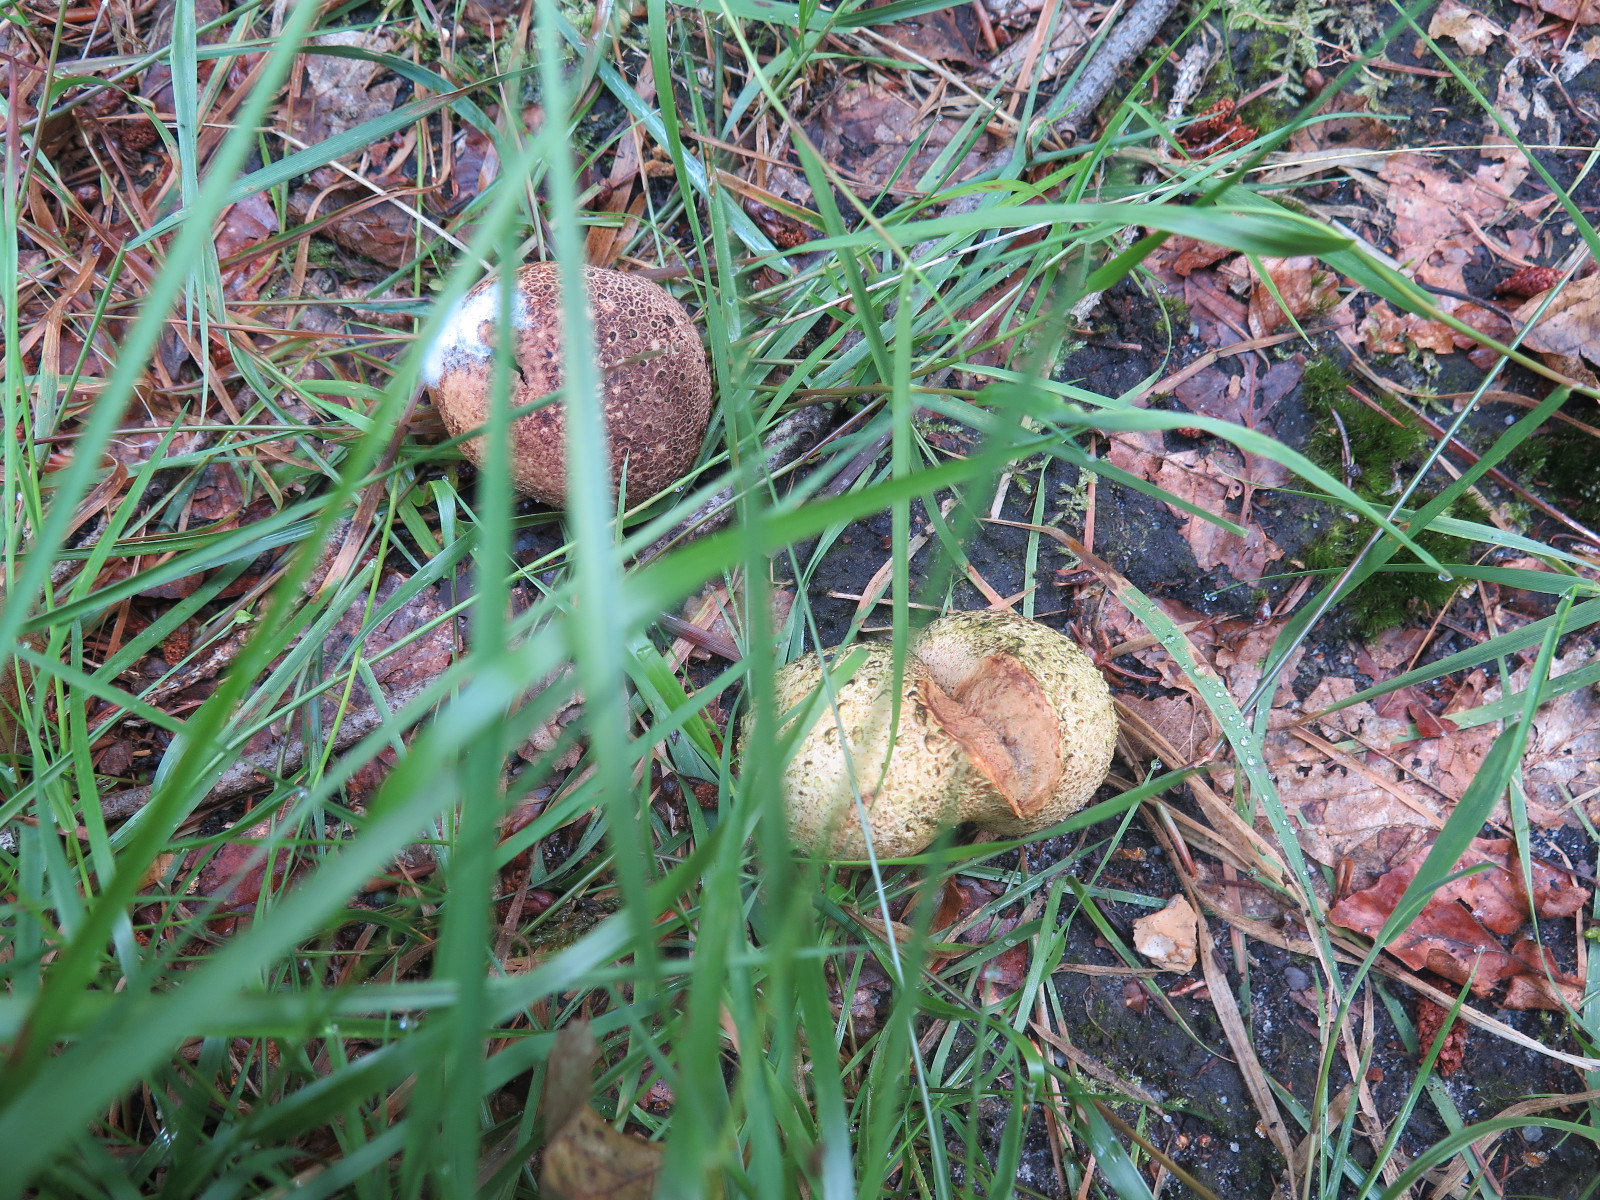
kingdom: Fungi
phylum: Basidiomycota
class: Agaricomycetes
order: Boletales
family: Sclerodermataceae
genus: Scleroderma
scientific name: Scleroderma citrinum
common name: almindelig bruskbold
